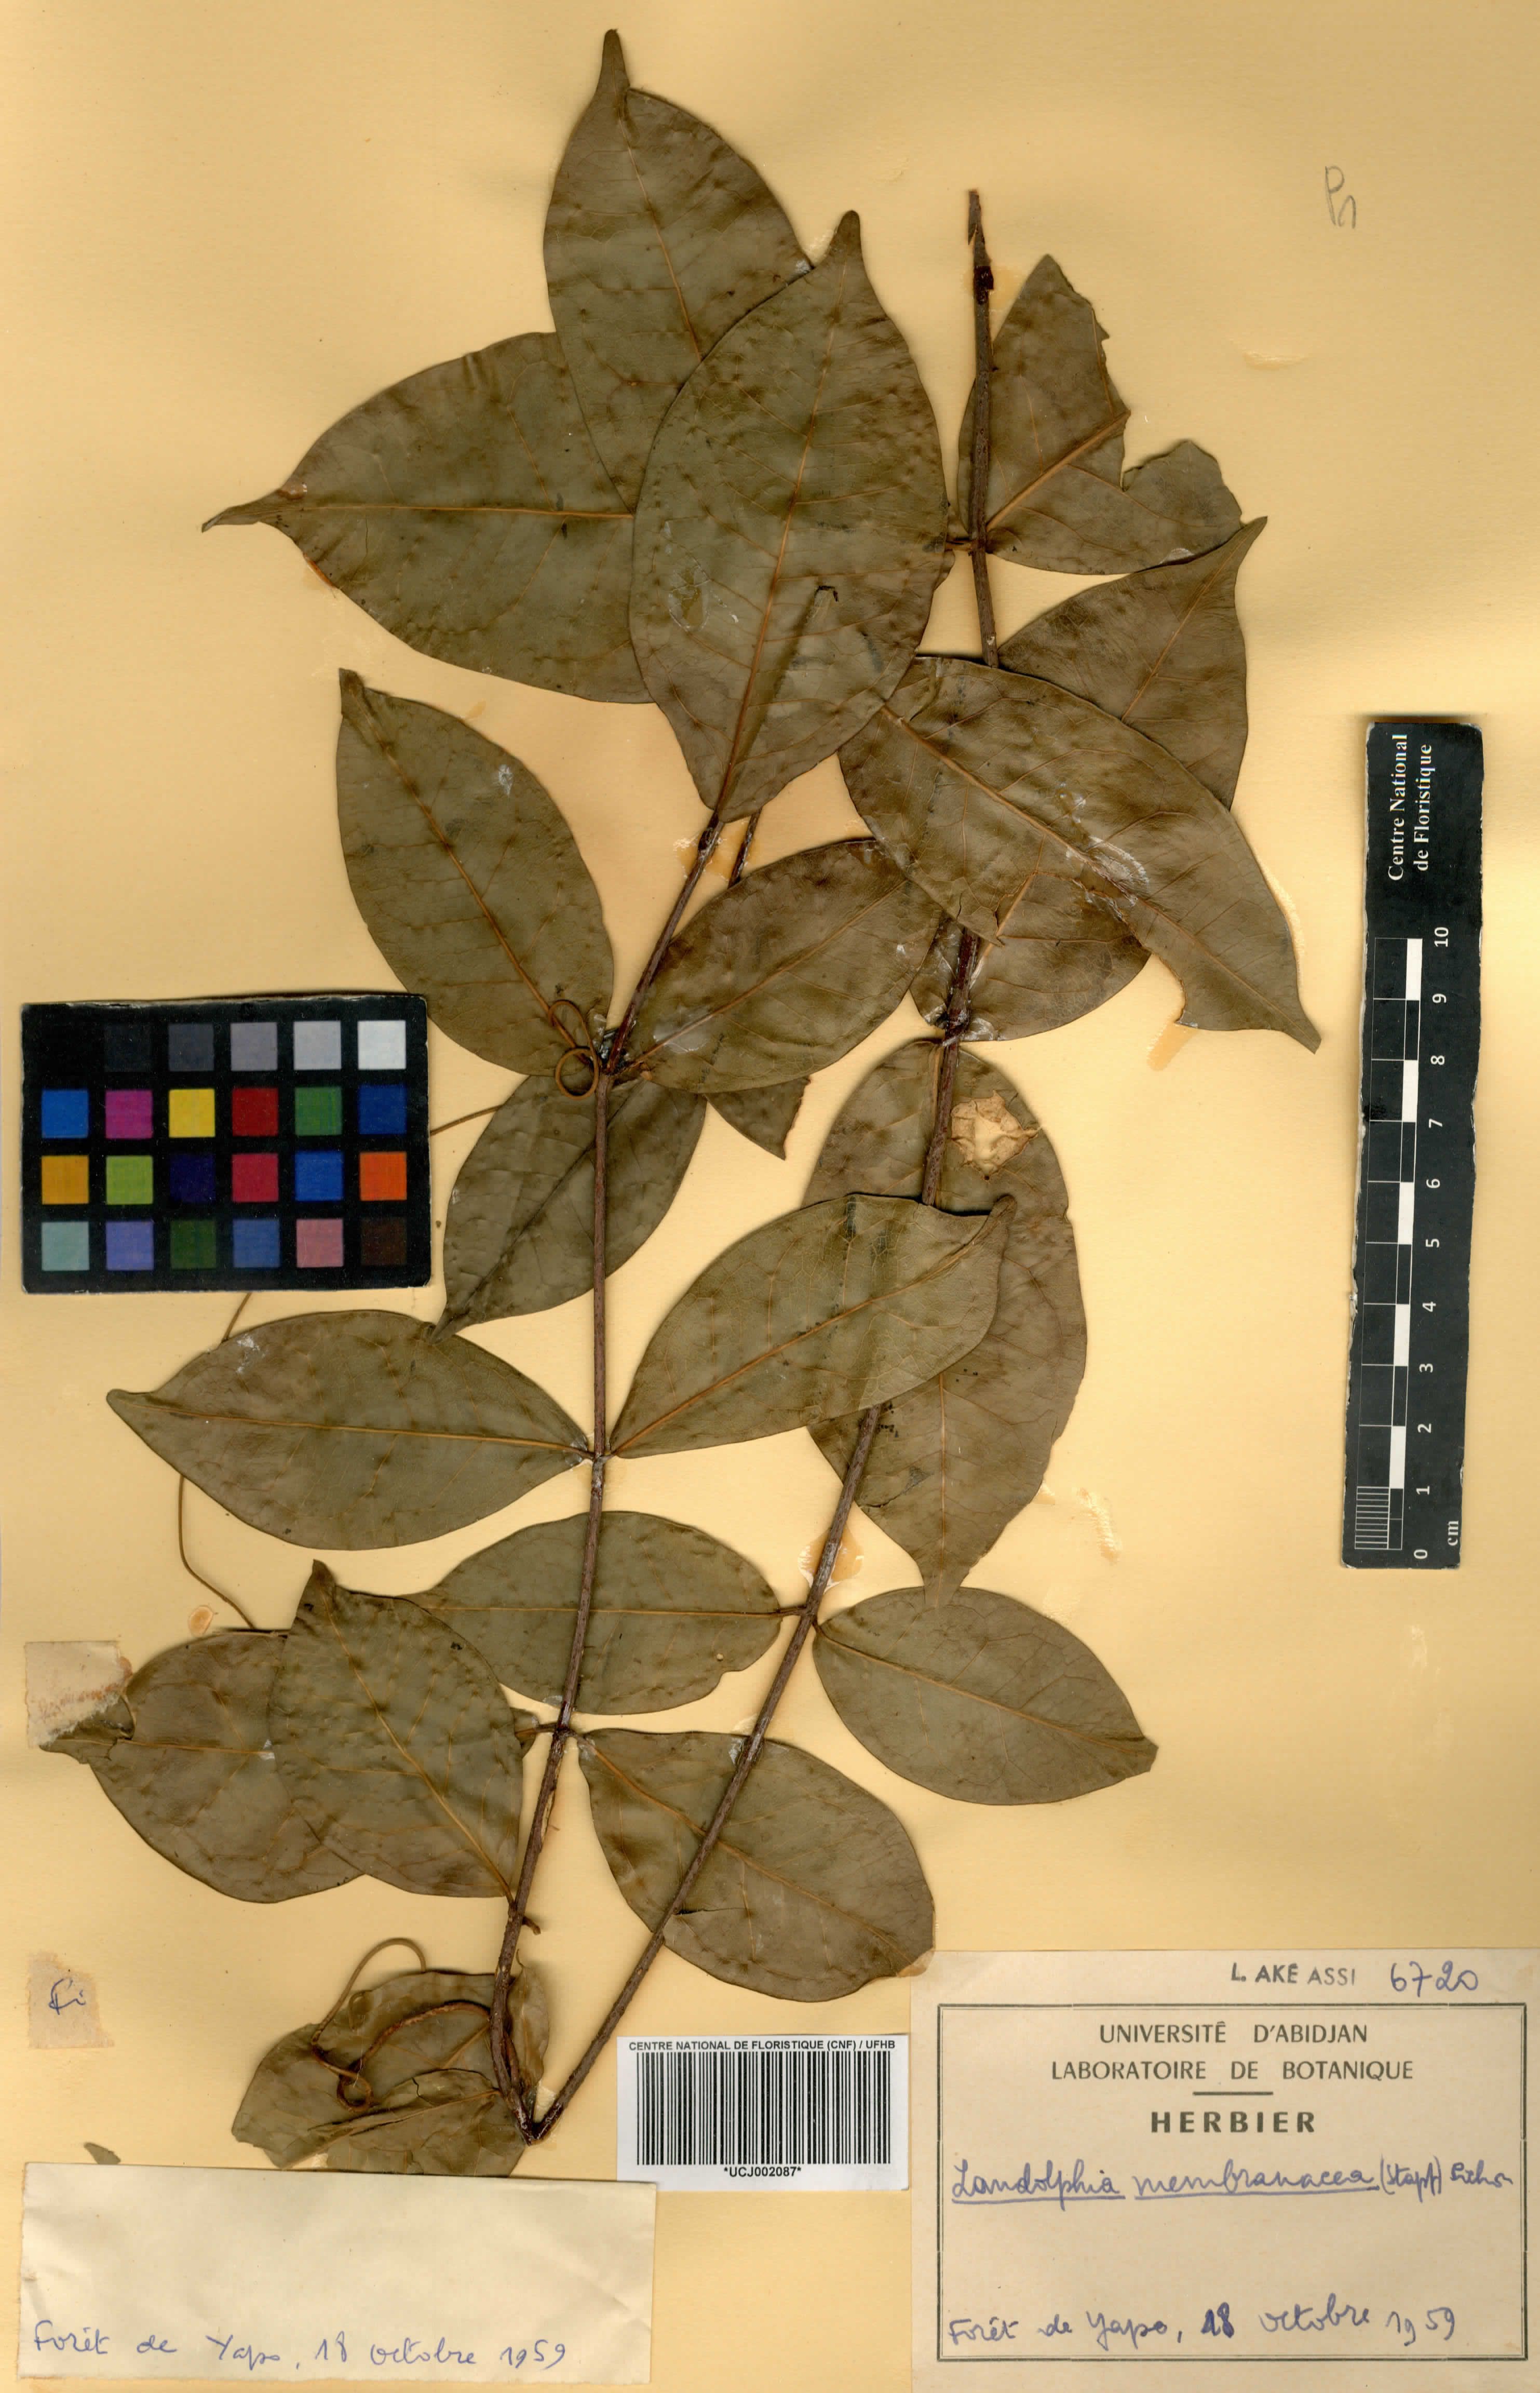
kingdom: Plantae
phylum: Tracheophyta
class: Magnoliopsida
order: Gentianales
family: Apocynaceae
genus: Landolphia
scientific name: Landolphia membranacea
